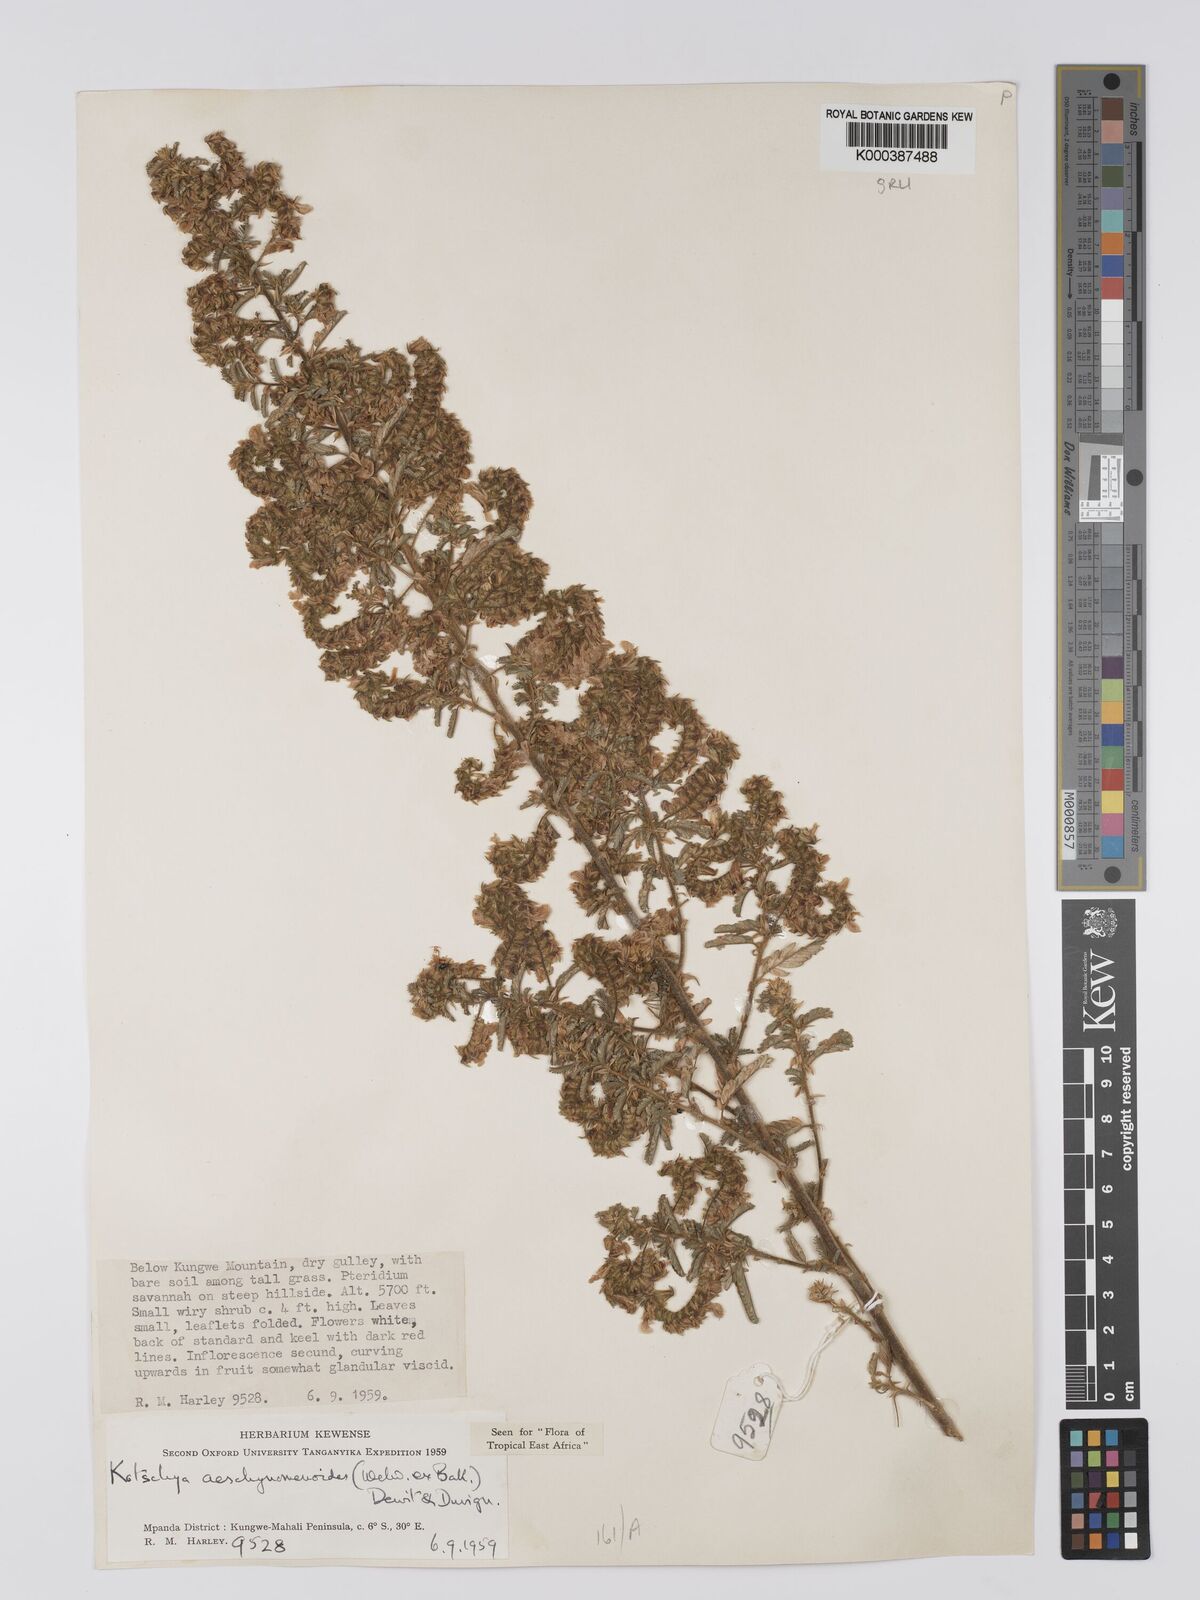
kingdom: Plantae
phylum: Tracheophyta
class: Magnoliopsida
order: Fabales
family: Fabaceae
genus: Kotschya
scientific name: Kotschya aeschynomenoides
